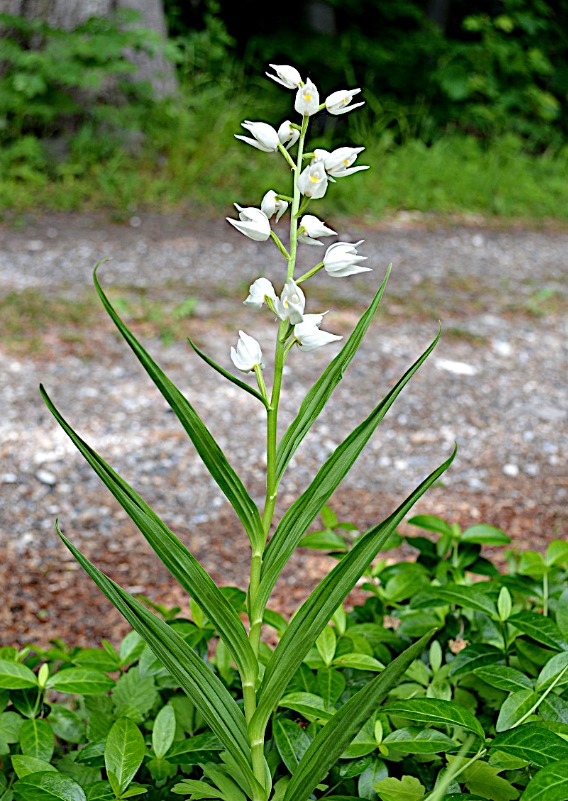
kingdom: Plantae
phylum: Tracheophyta
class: Liliopsida
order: Asparagales
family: Orchidaceae
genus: Cephalanthera
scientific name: Cephalanthera longifolia
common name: Sværd-skovlilje
